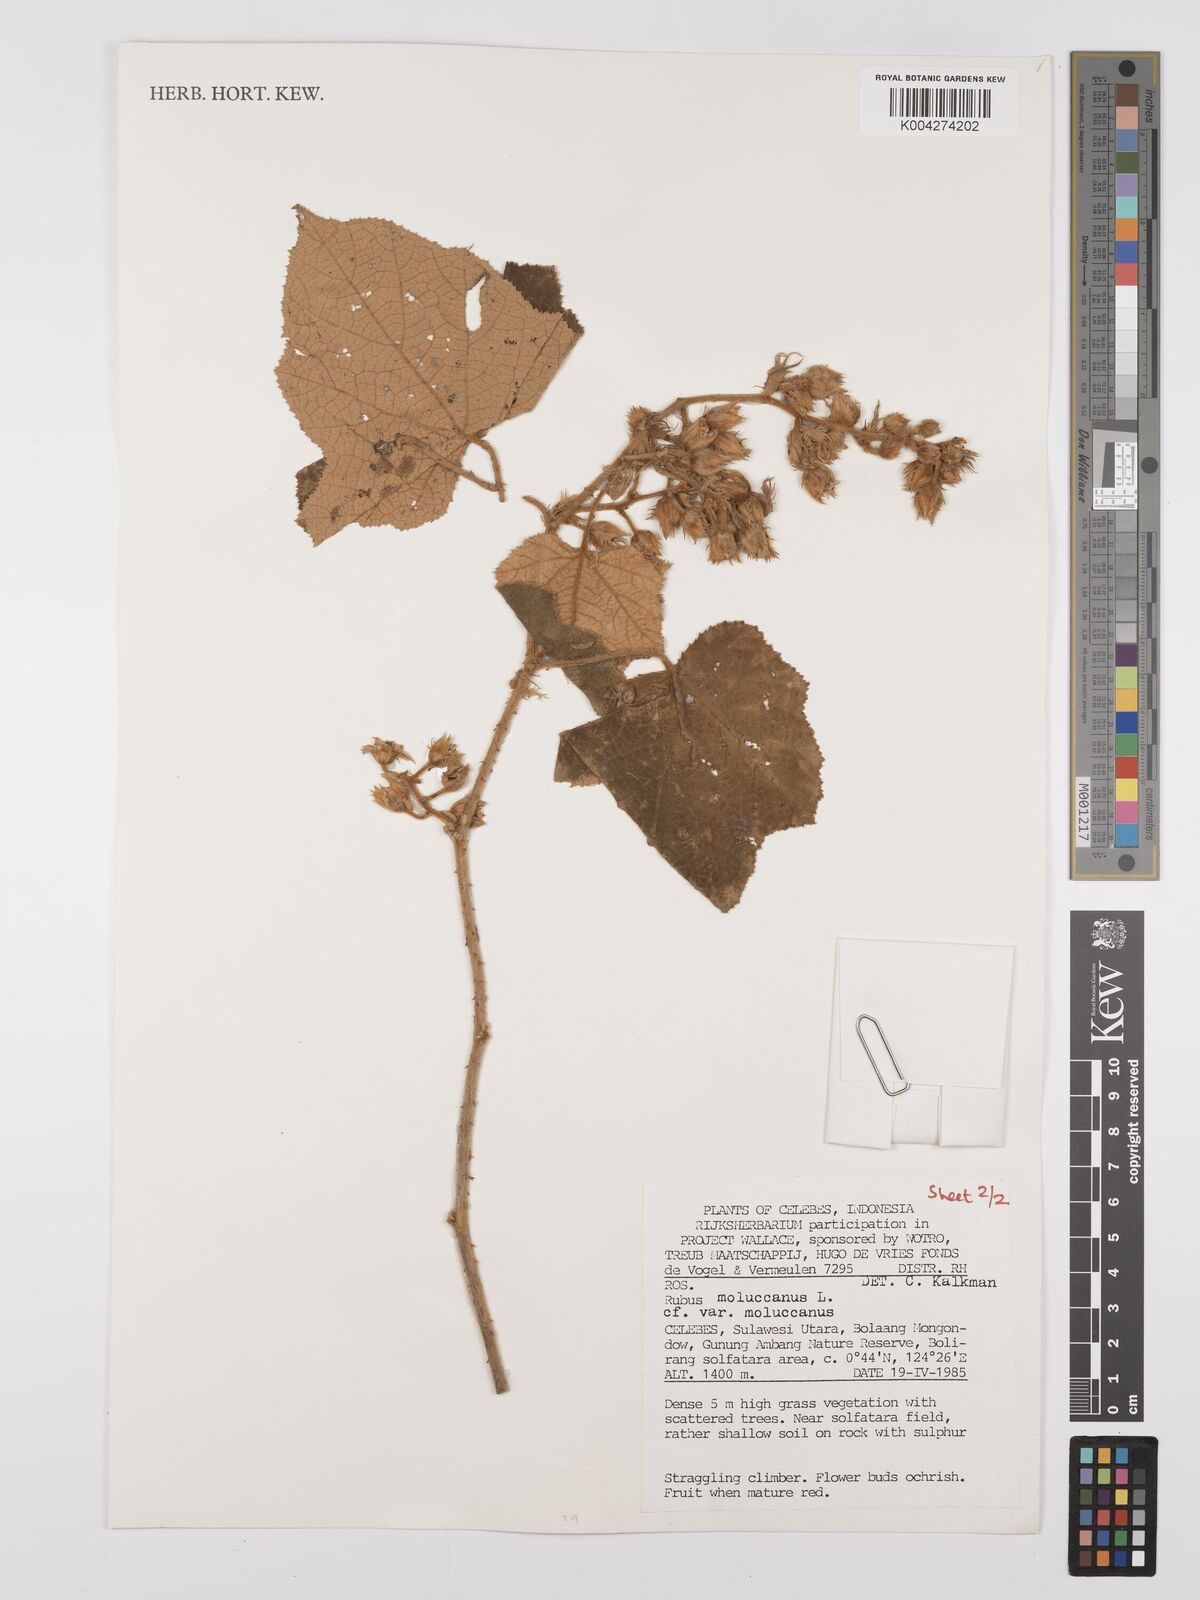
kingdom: Plantae
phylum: Tracheophyta
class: Magnoliopsida
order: Rosales
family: Rosaceae
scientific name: Rosaceae
